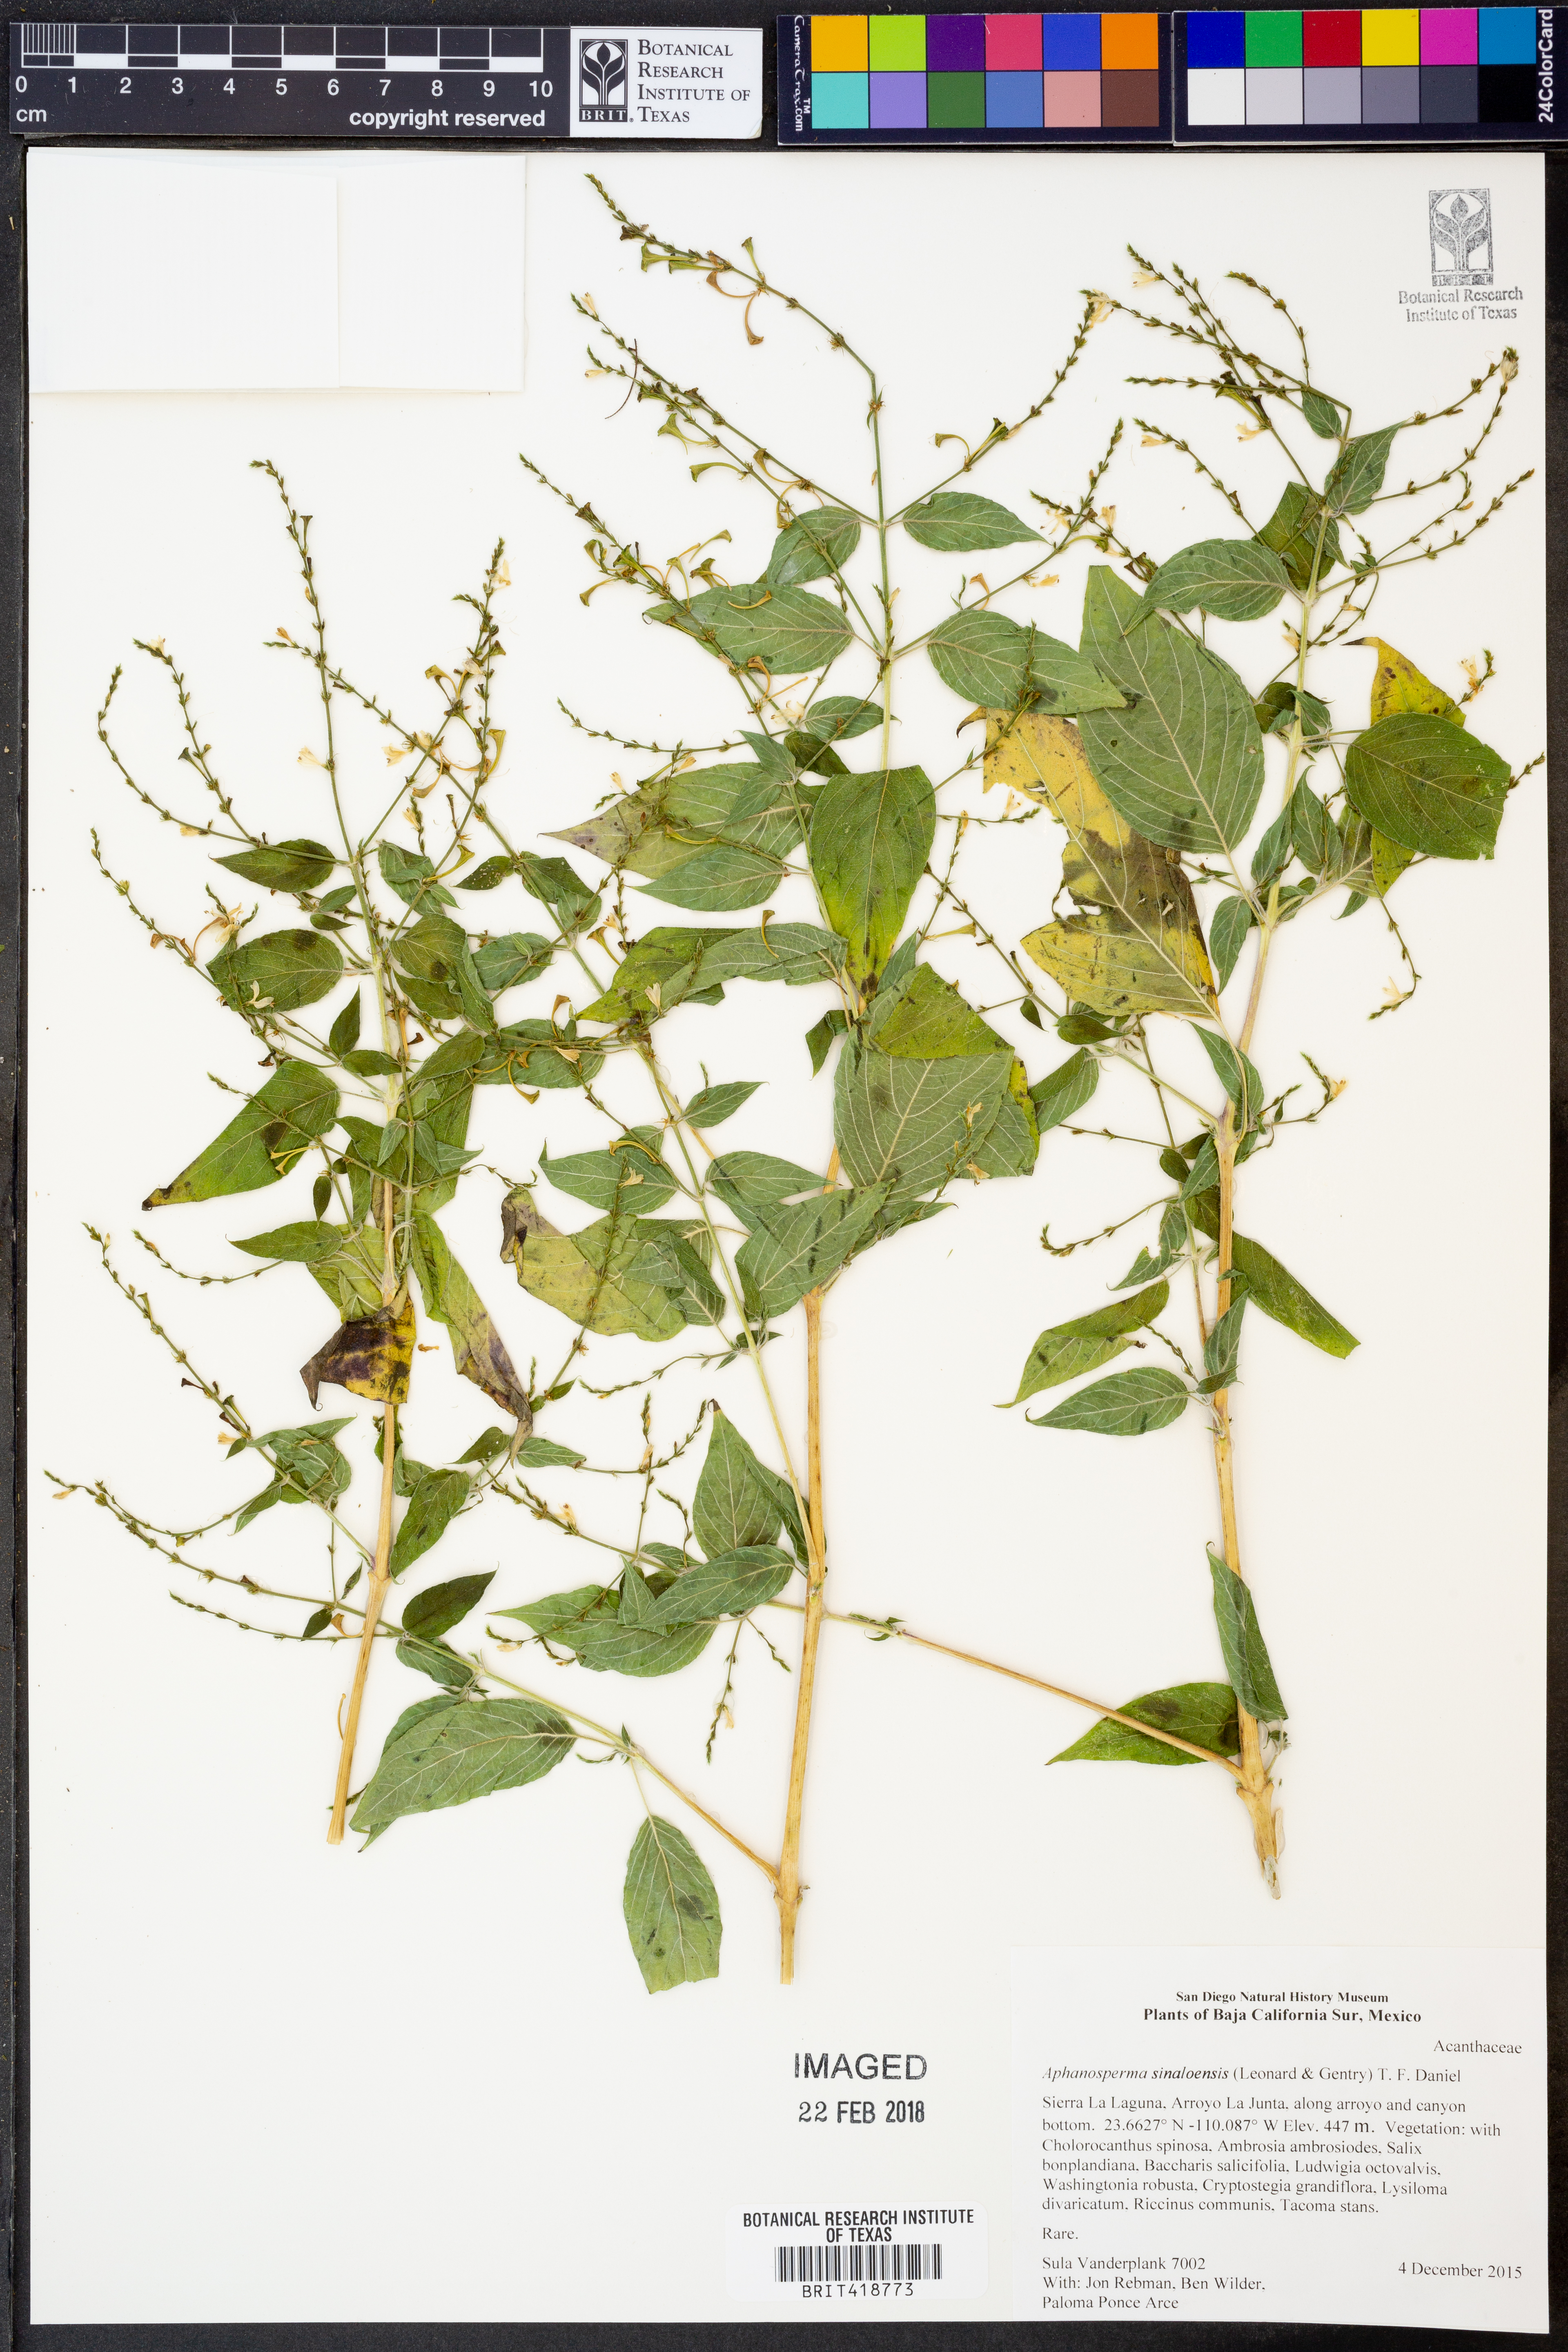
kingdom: Plantae
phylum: Tracheophyta
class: Magnoliopsida
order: Lamiales
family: Acanthaceae
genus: Aphanosperma
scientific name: Aphanosperma sinaloensis
